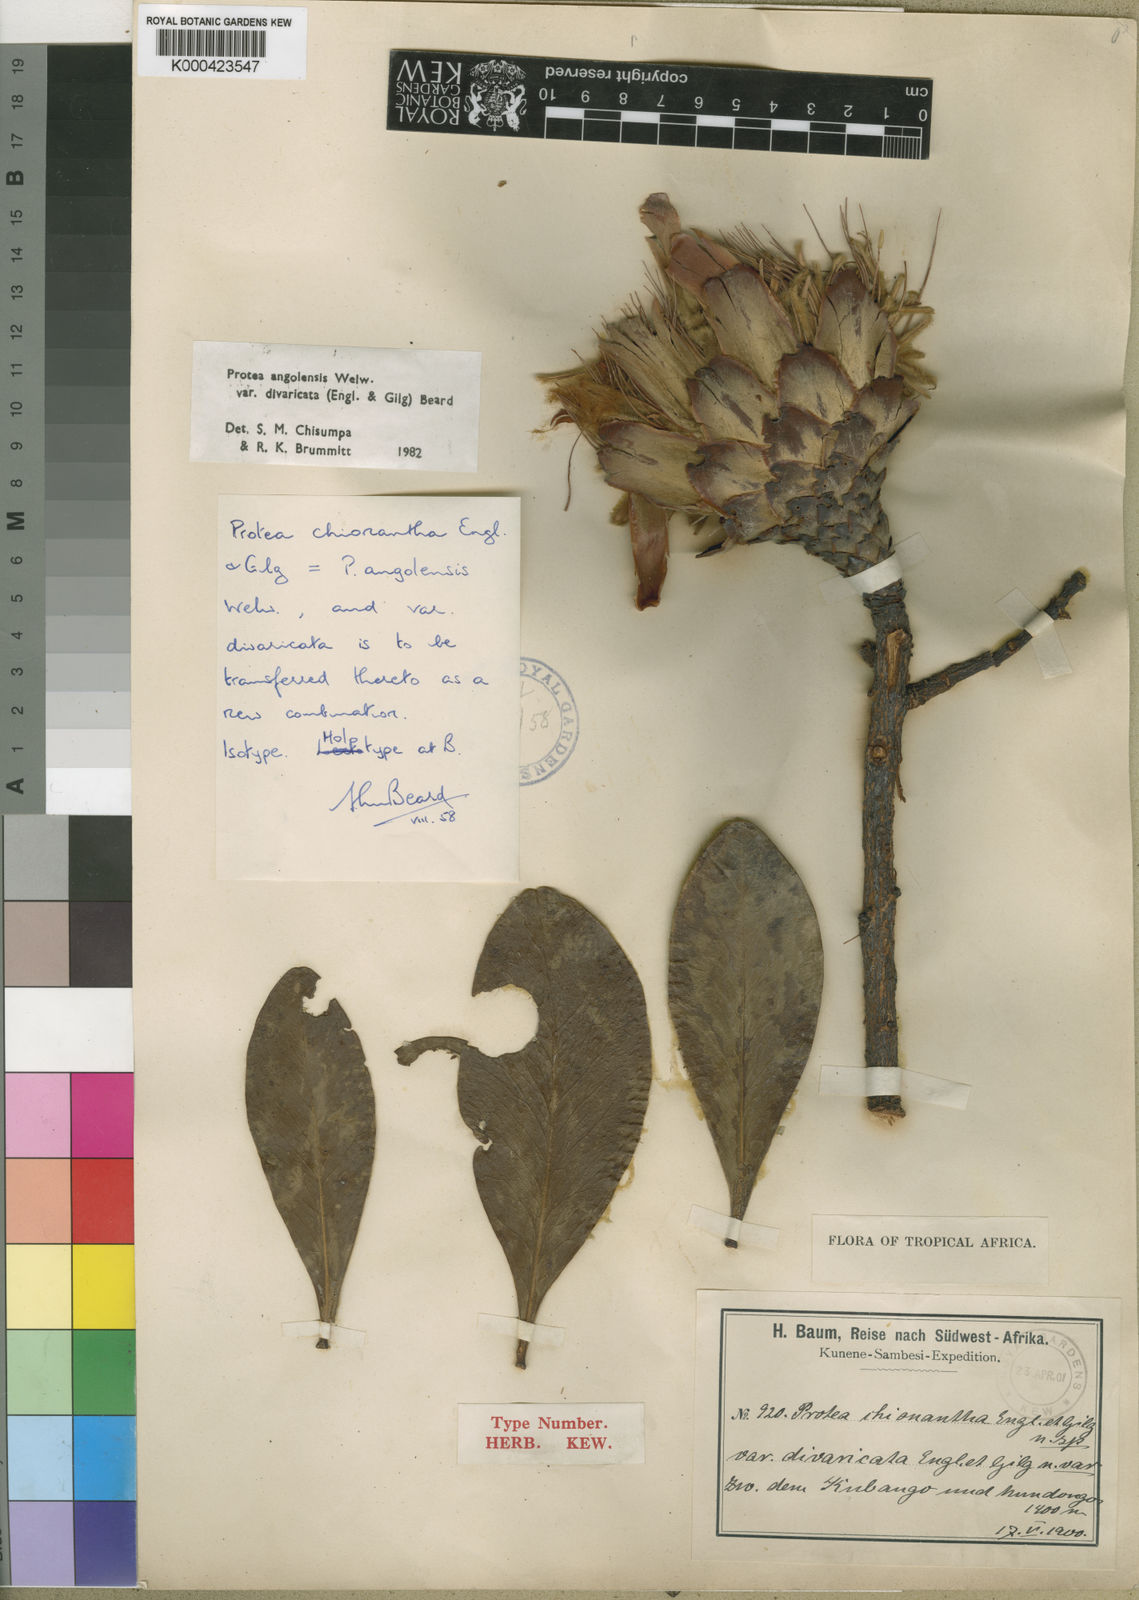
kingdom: Plantae
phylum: Tracheophyta
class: Magnoliopsida
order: Proteales
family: Proteaceae
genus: Protea
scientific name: Protea angolensis
